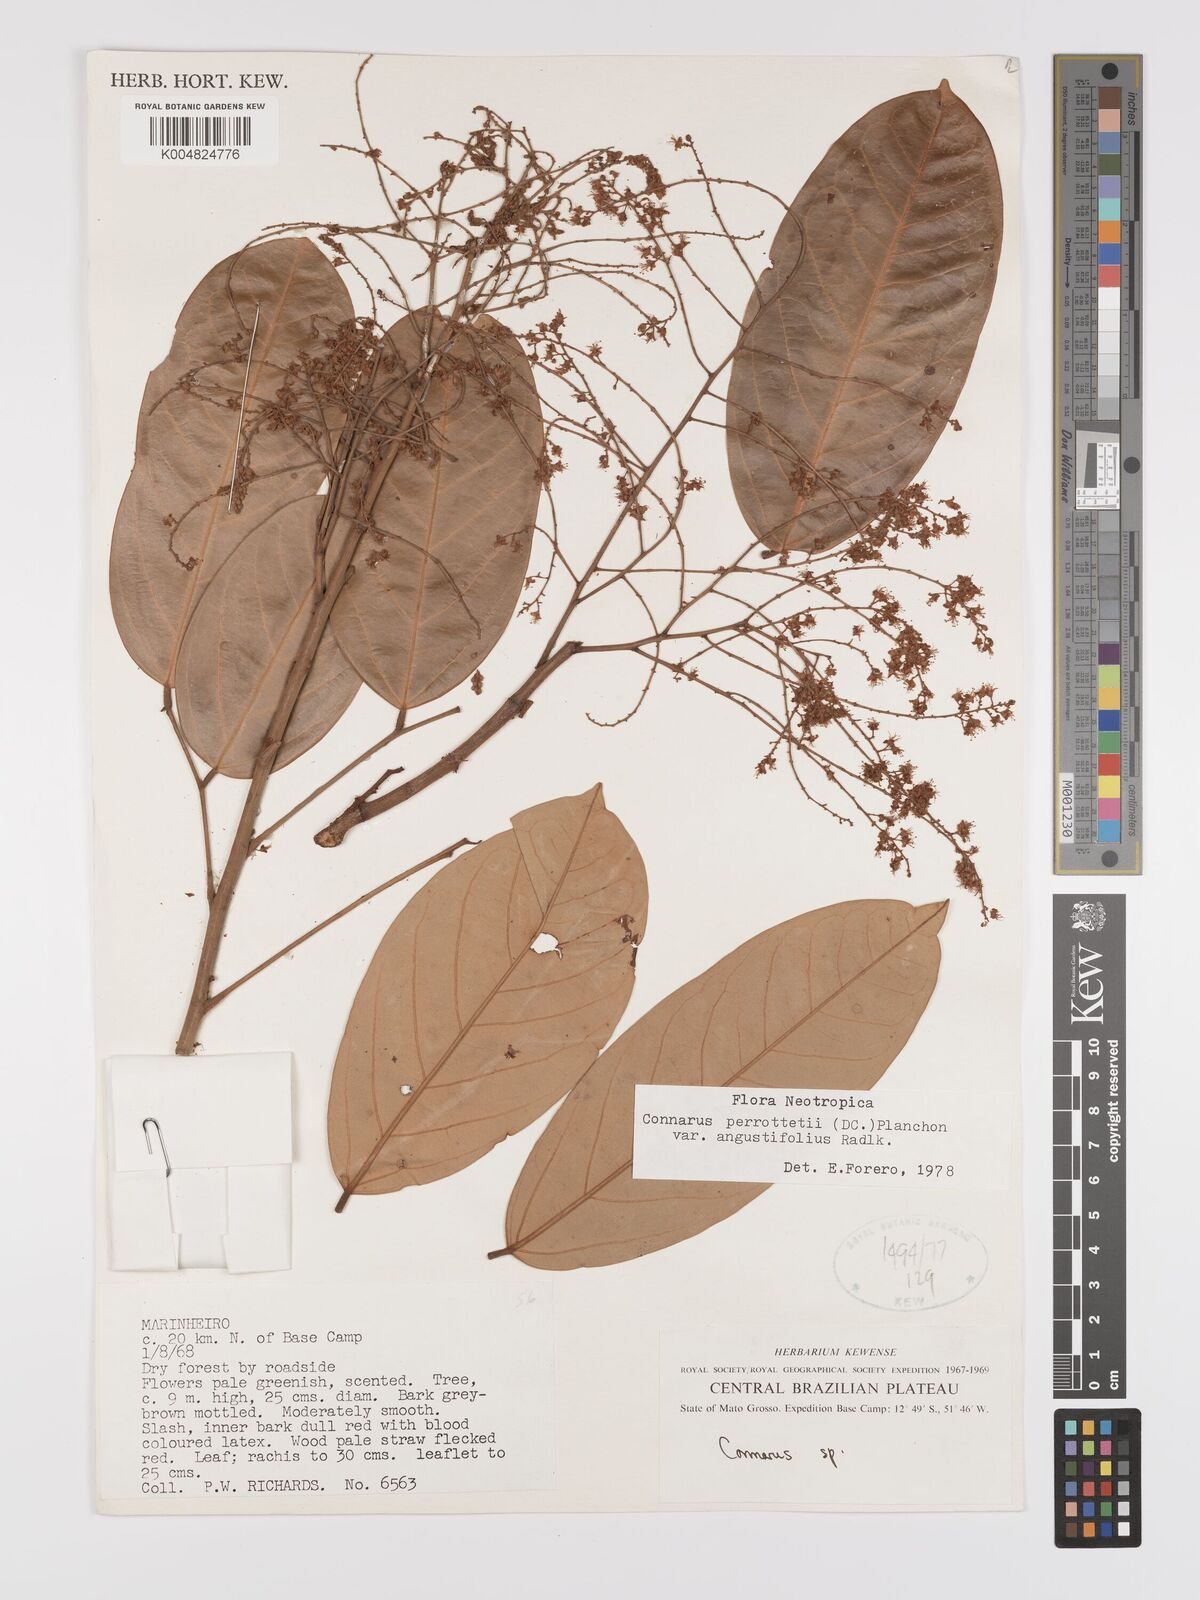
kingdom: Plantae
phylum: Tracheophyta
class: Magnoliopsida
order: Oxalidales
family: Connaraceae
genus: Connarus
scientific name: Connarus perrottetii
